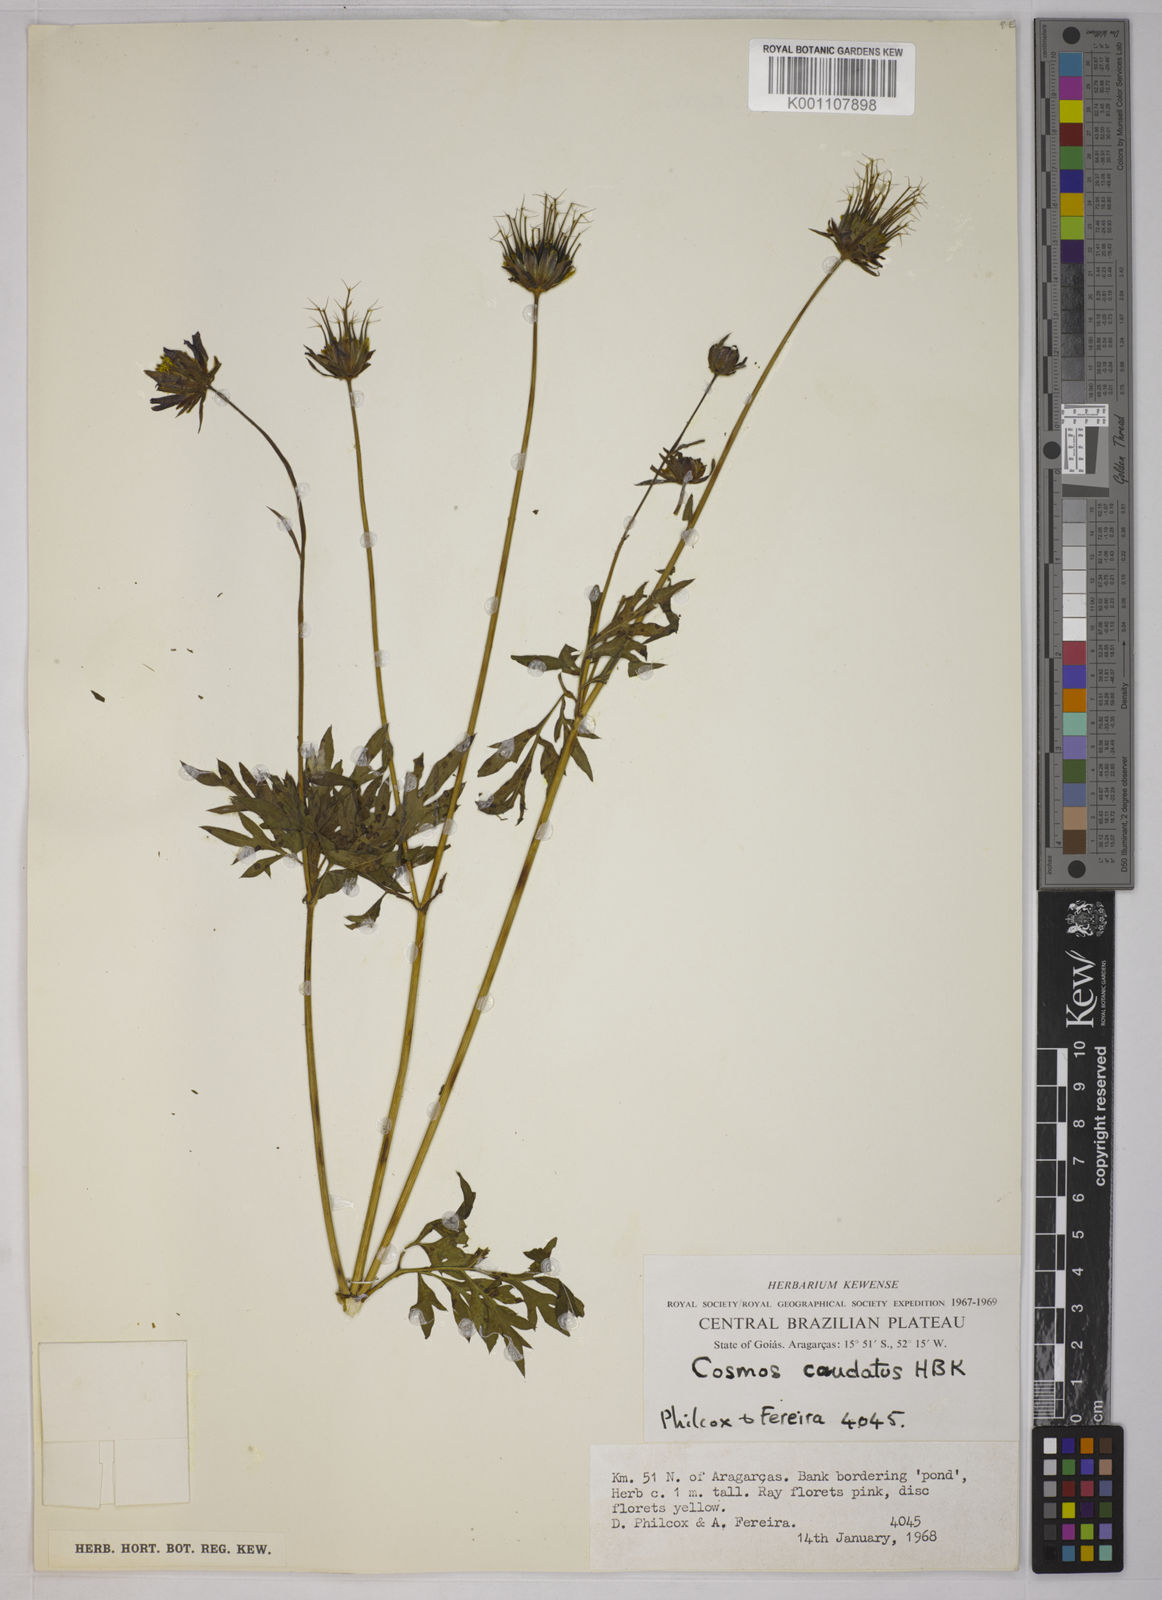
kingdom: Plantae
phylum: Tracheophyta
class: Magnoliopsida
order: Asterales
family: Asteraceae
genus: Cosmos
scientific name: Cosmos caudatus
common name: Wild cosmos
